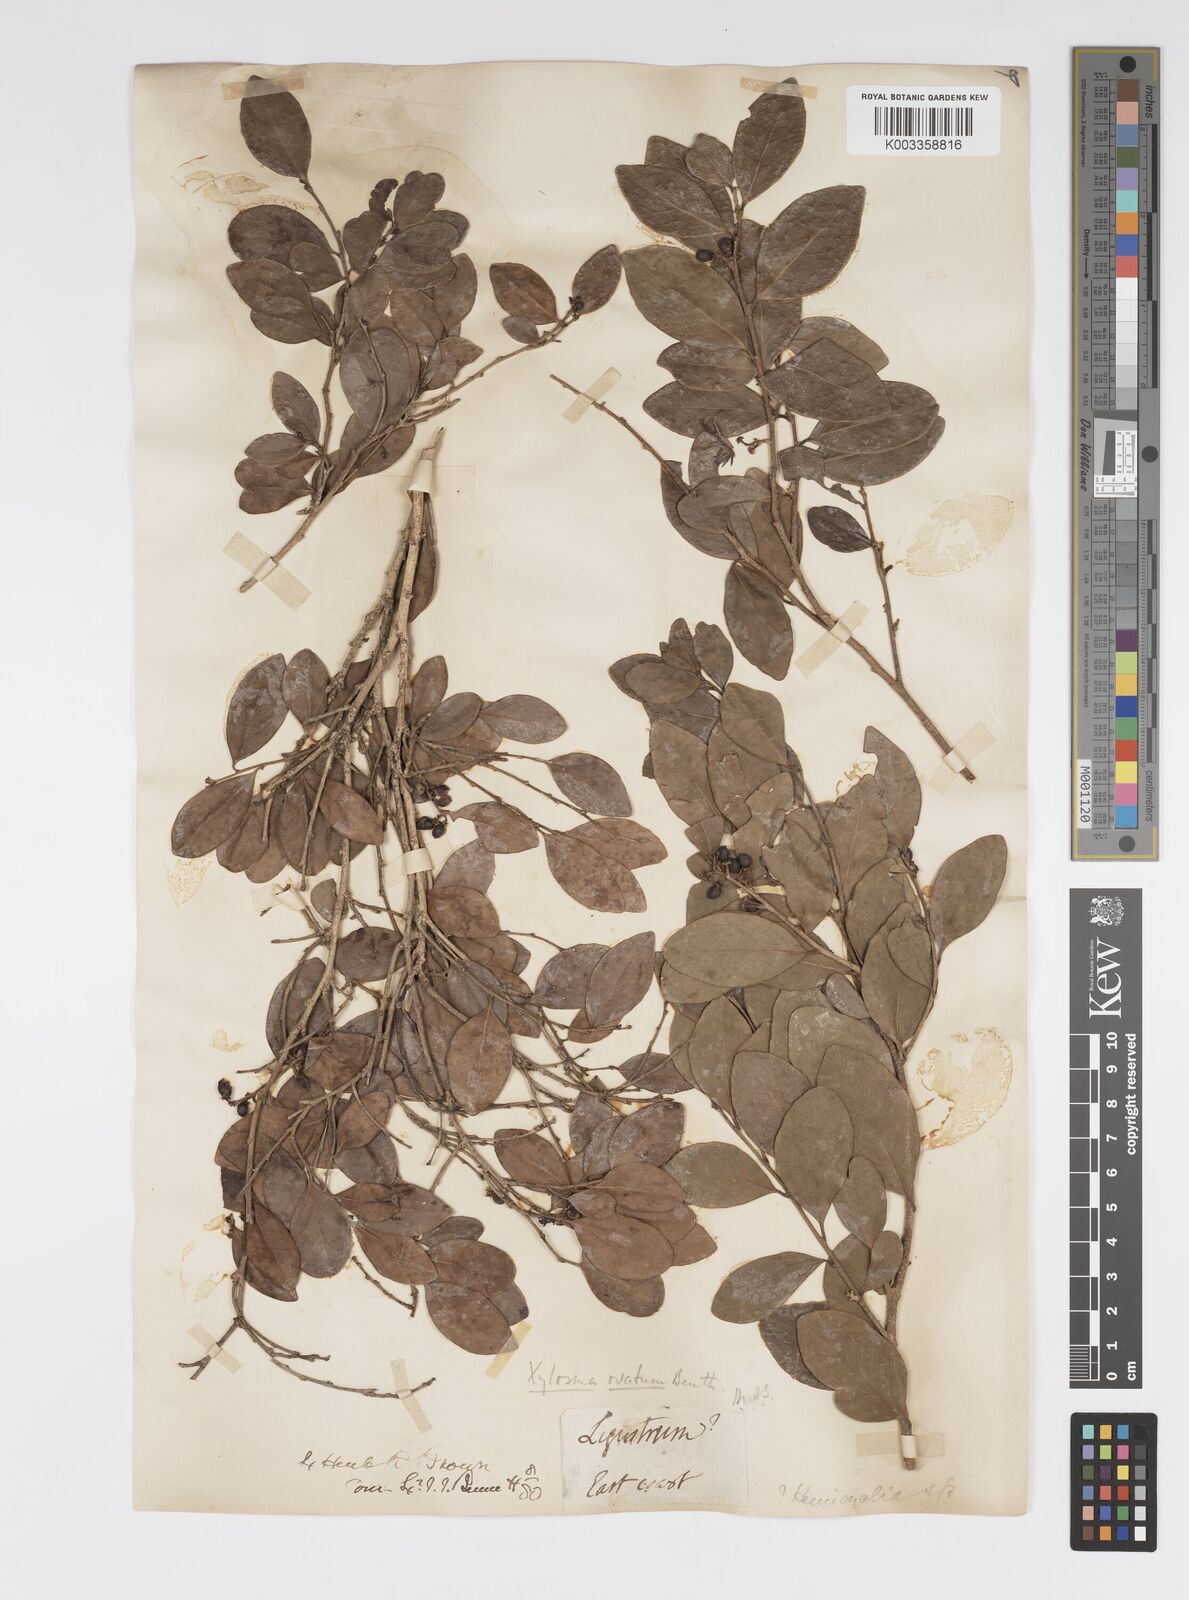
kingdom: Plantae
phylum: Tracheophyta
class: Magnoliopsida
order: Malpighiales
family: Salicaceae
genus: Xylosma
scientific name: Xylosma
